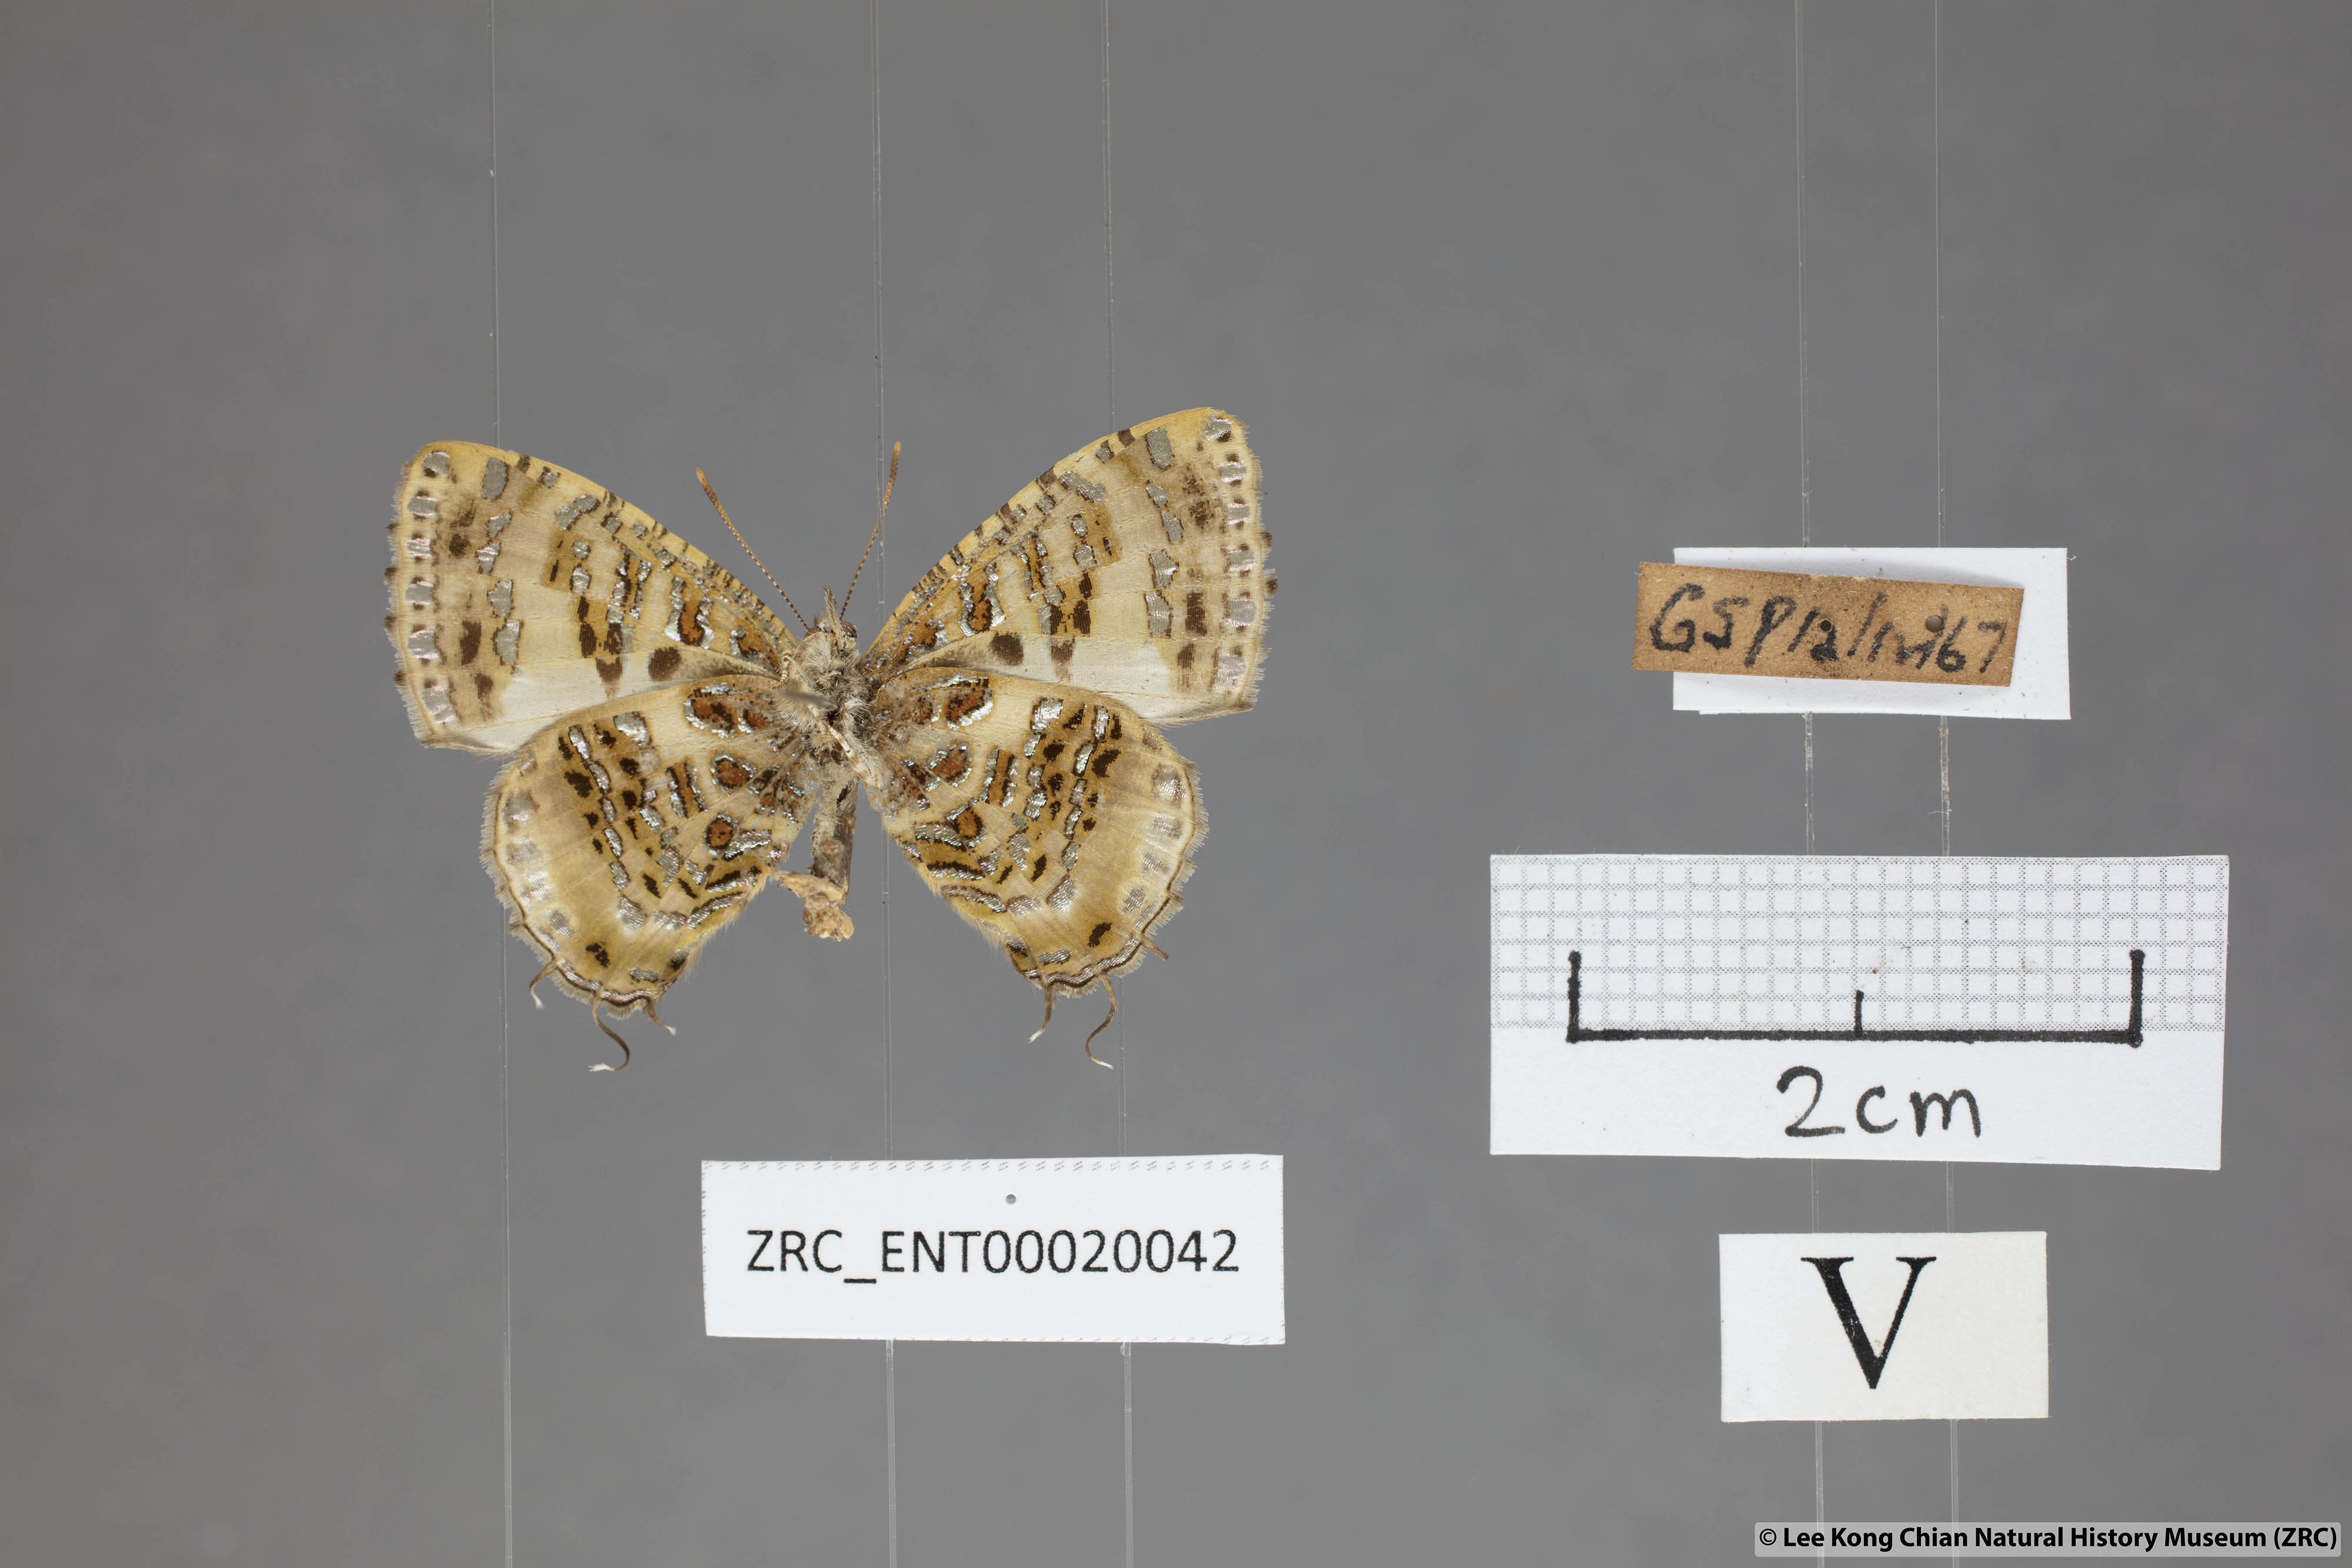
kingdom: Animalia
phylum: Arthropoda
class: Insecta
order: Lepidoptera
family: Lycaenidae
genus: Catapaecilma
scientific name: Catapaecilma major
